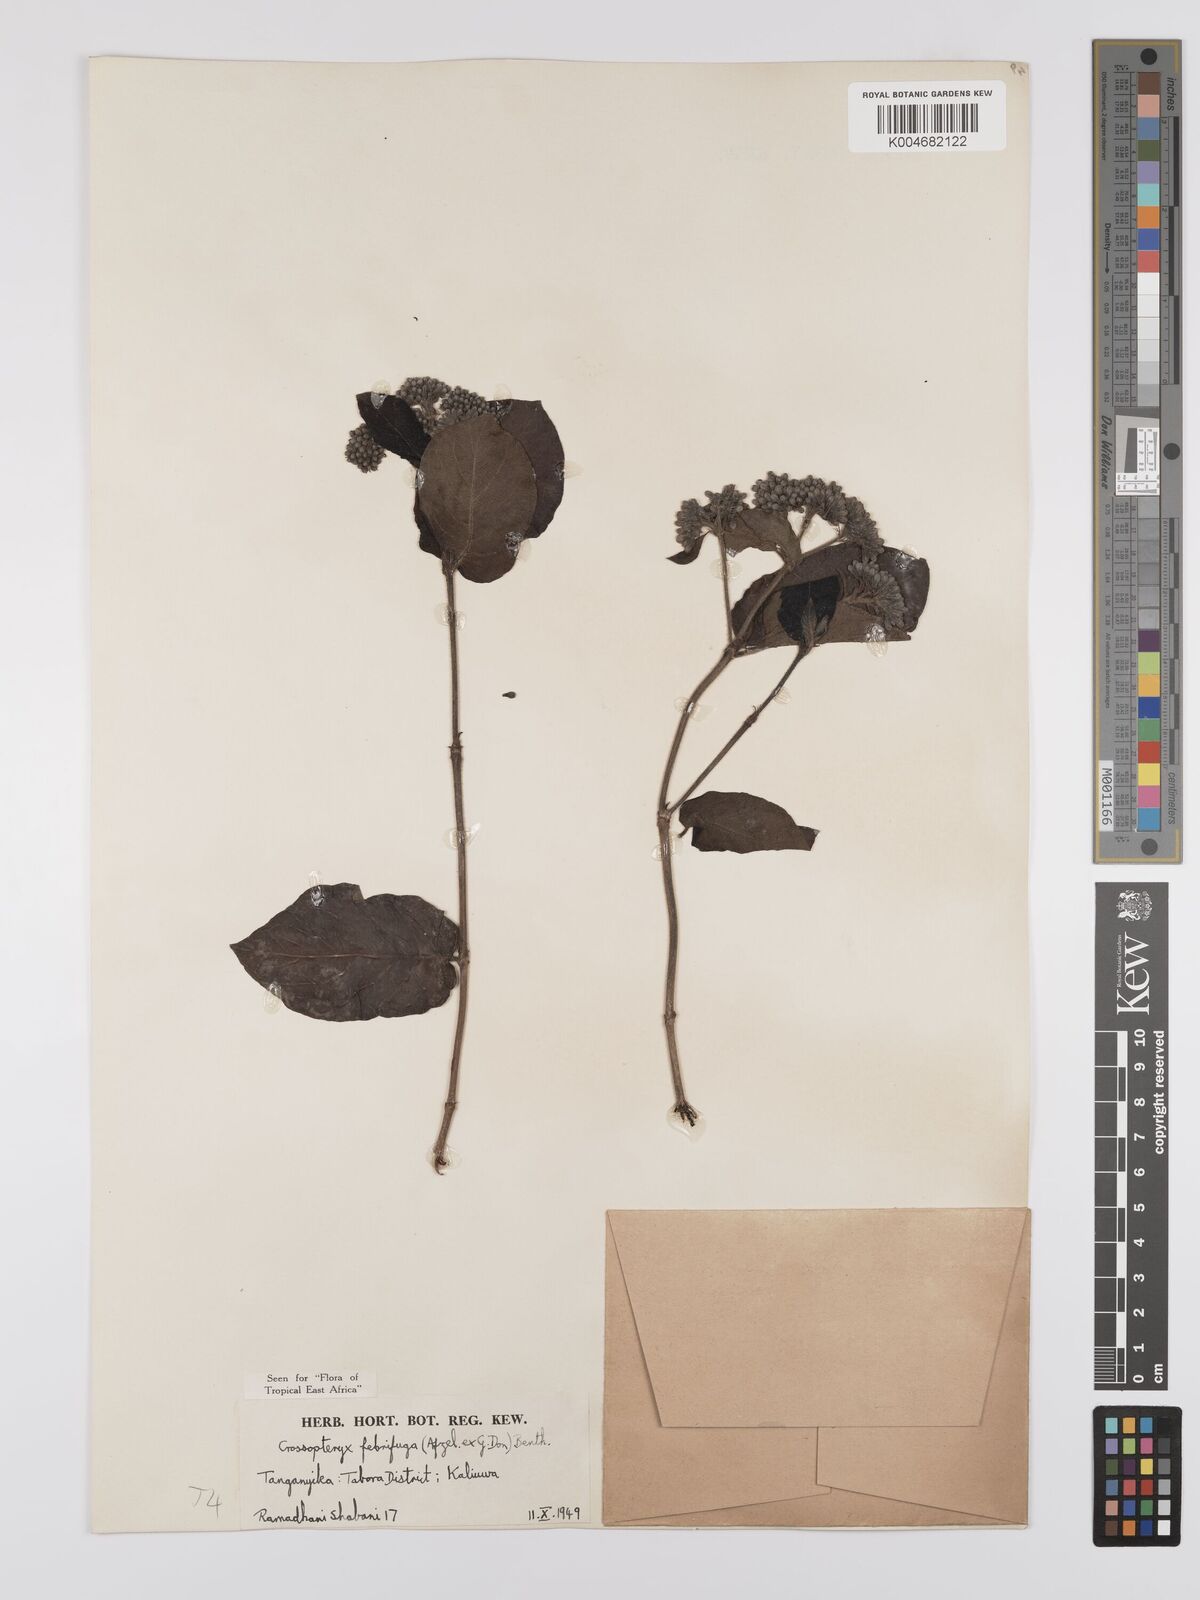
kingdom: Plantae
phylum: Tracheophyta
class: Magnoliopsida
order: Gentianales
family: Rubiaceae
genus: Crossopteryx
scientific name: Crossopteryx febrifuga
